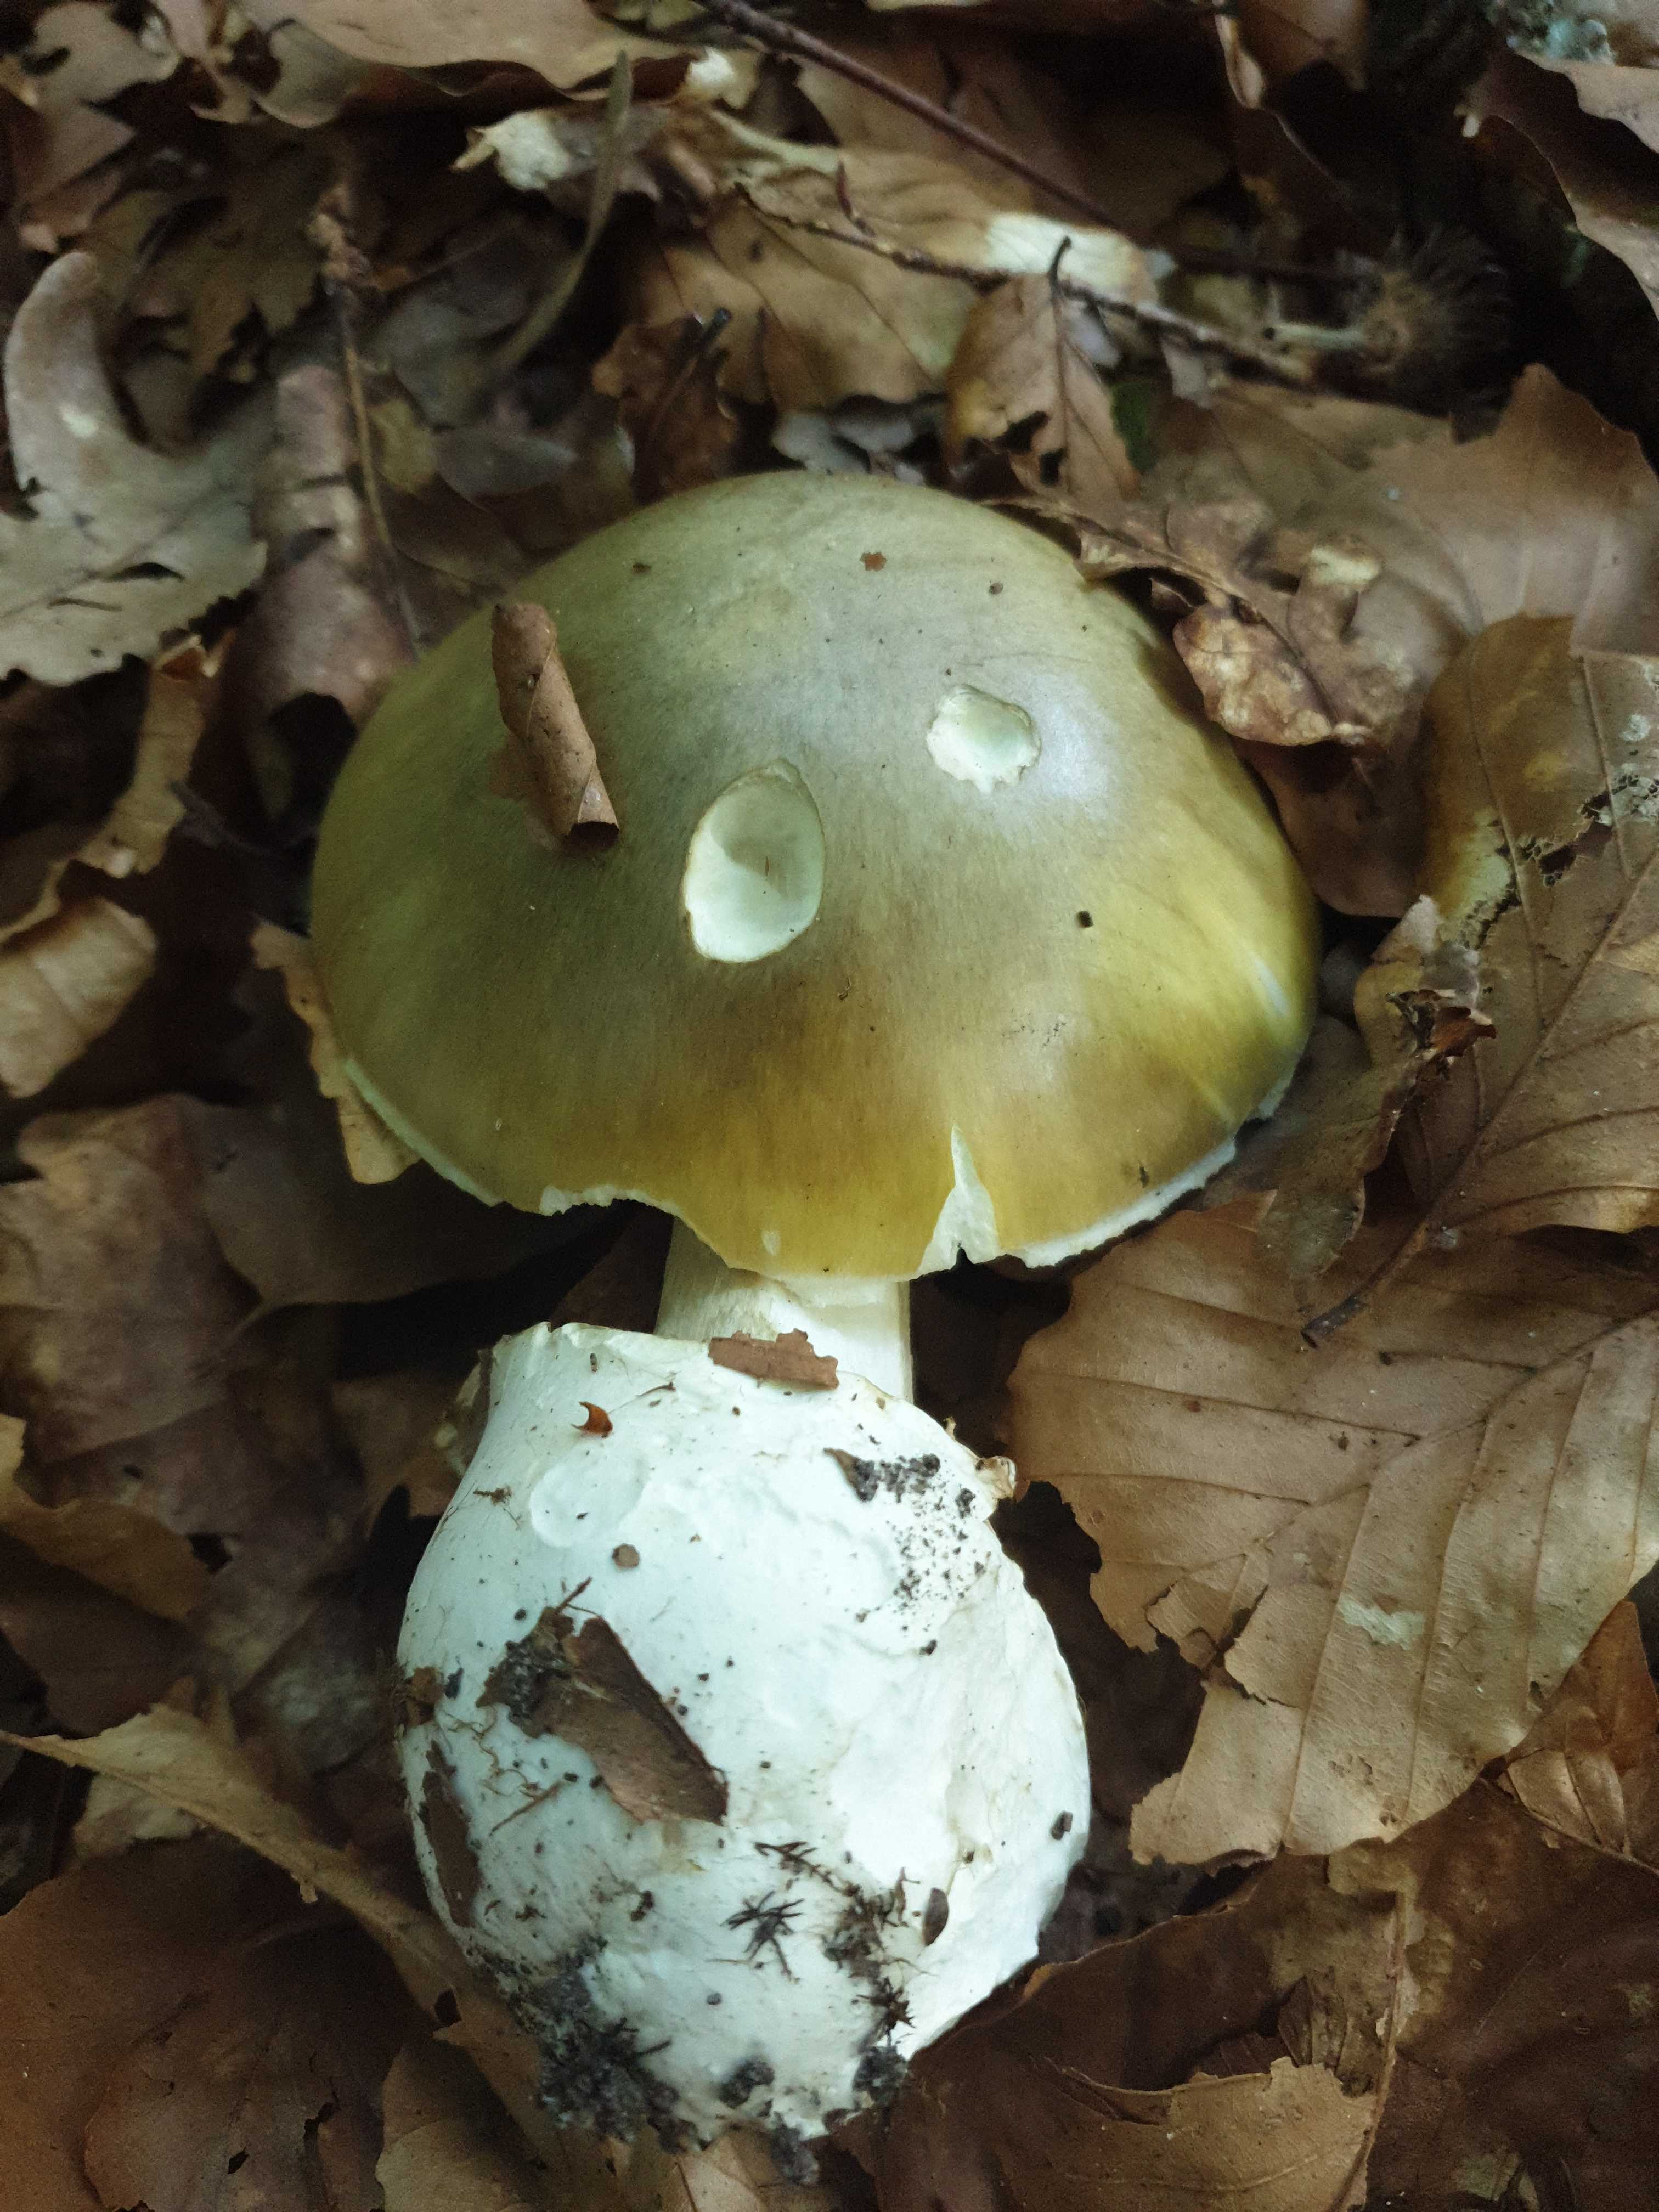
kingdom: Fungi
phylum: Basidiomycota
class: Agaricomycetes
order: Agaricales
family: Amanitaceae
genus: Amanita
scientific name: Amanita phalloides
